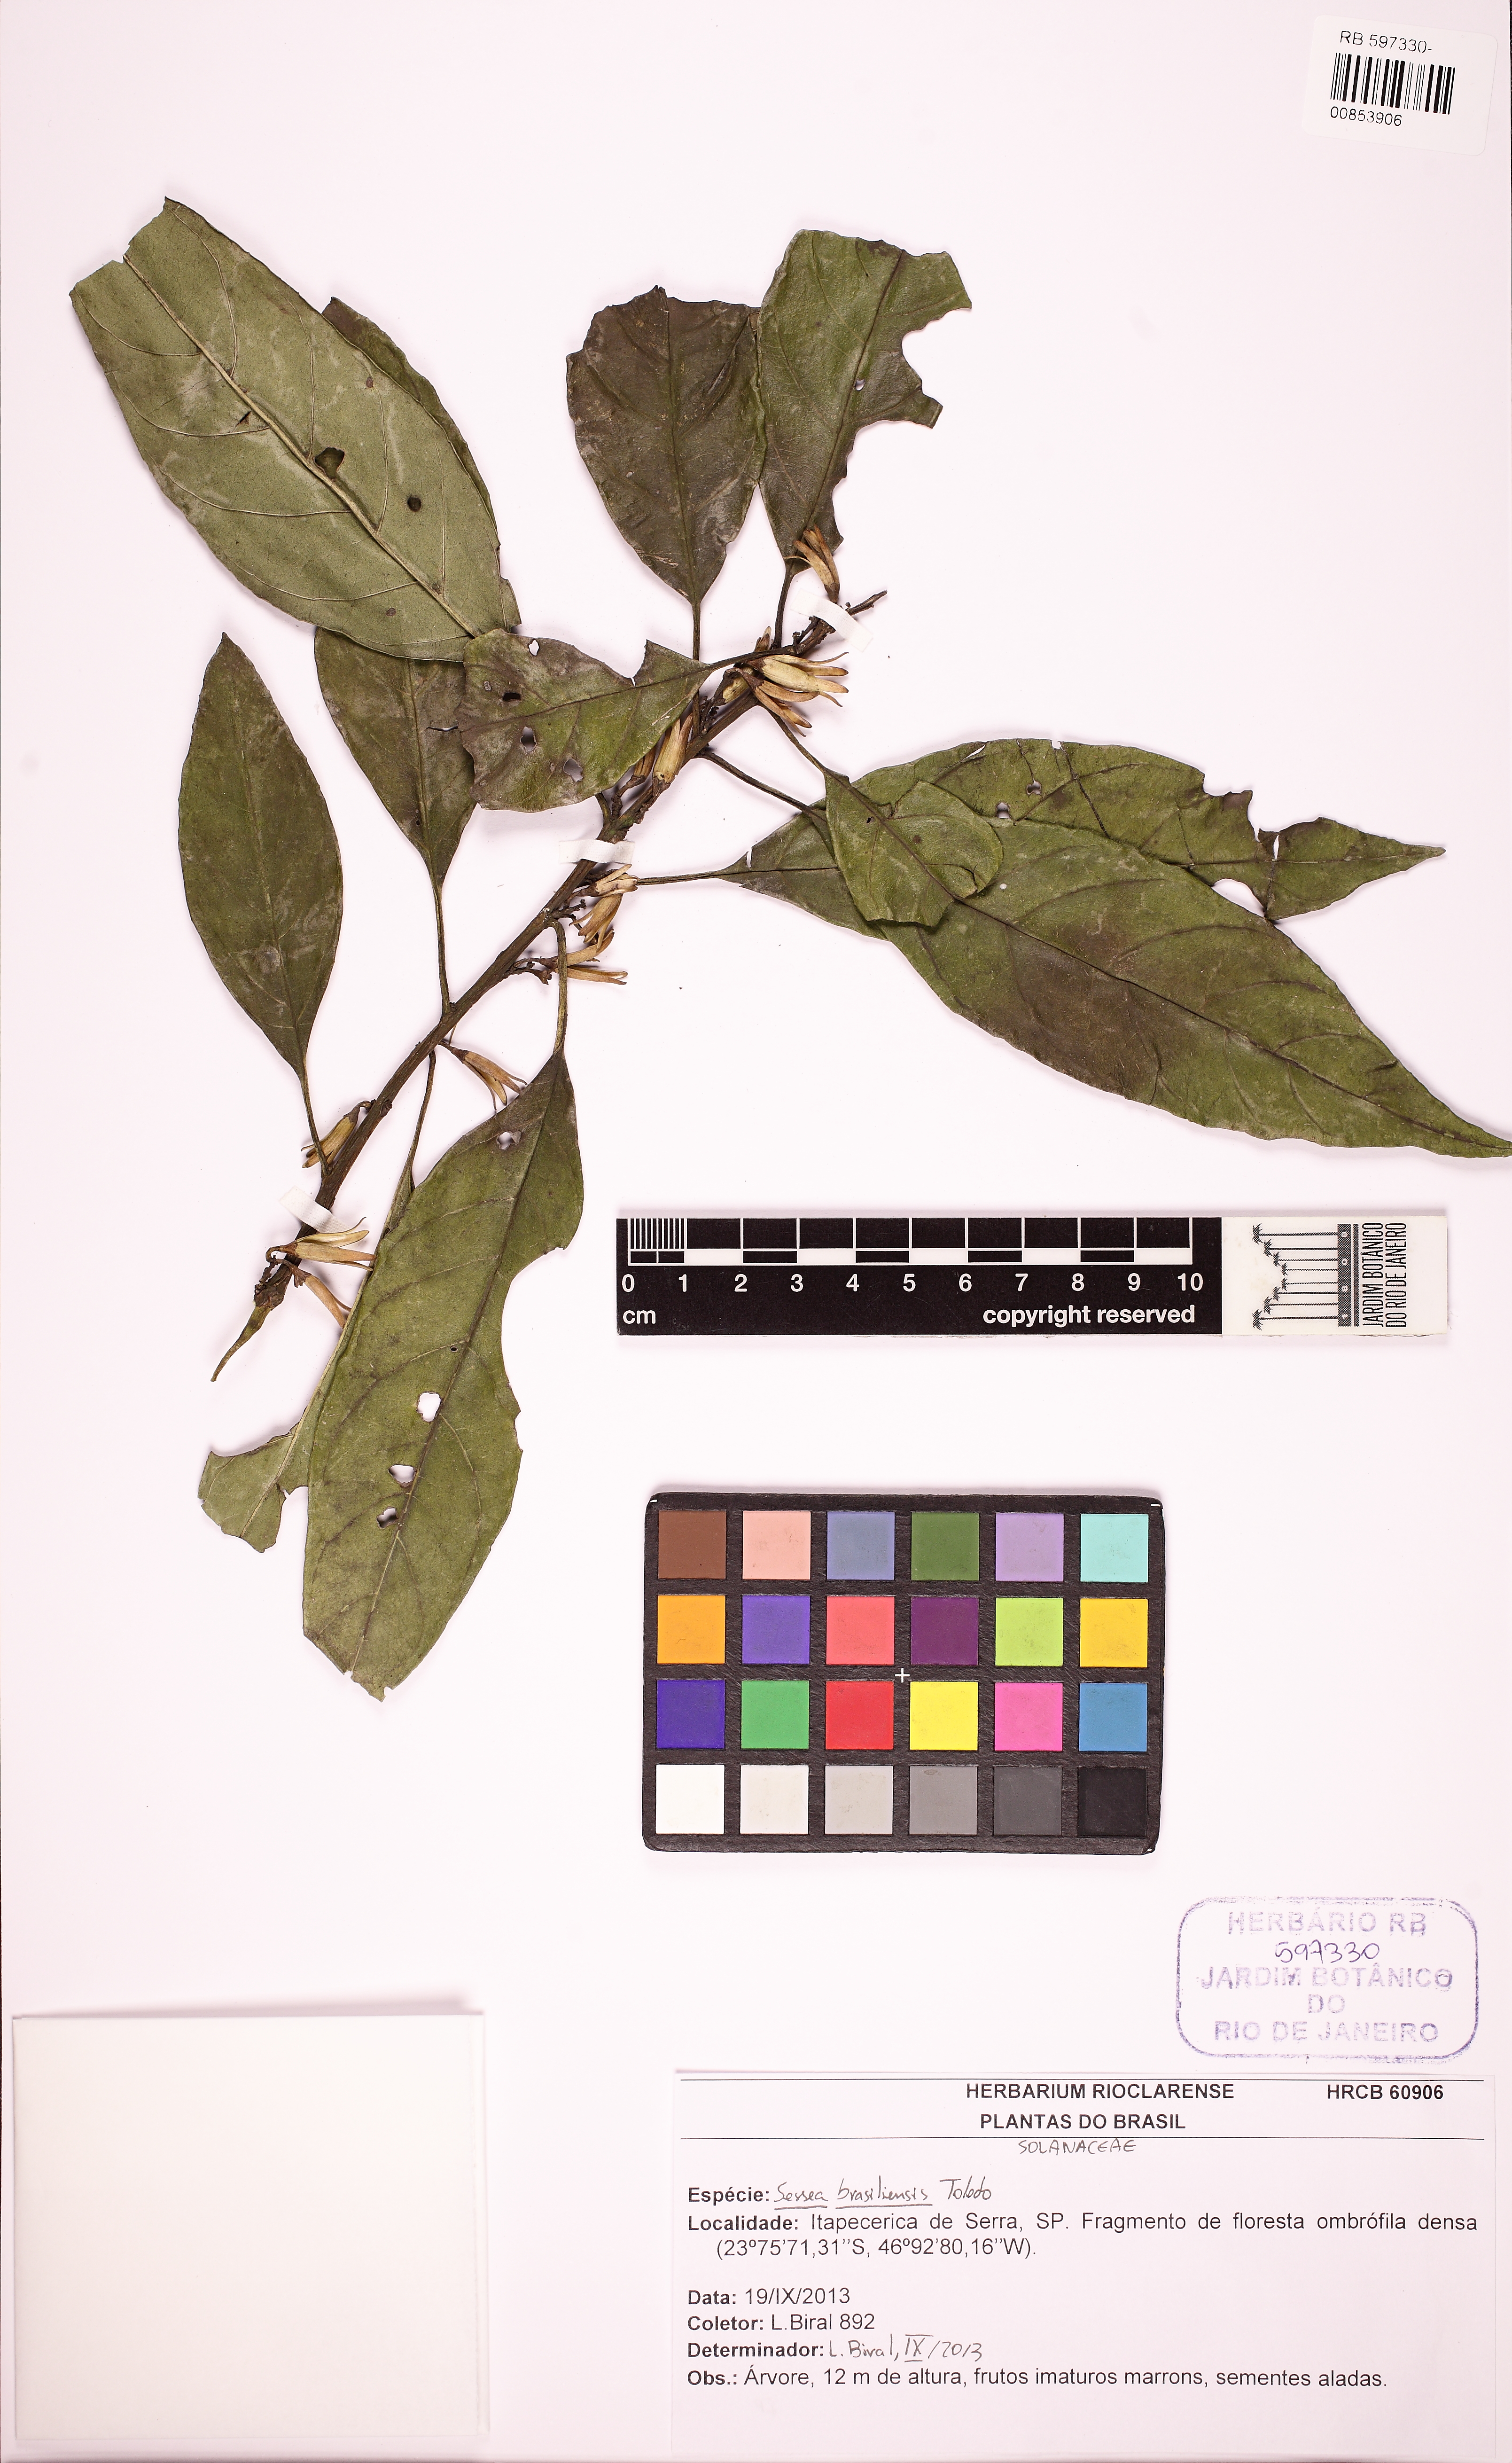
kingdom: Plantae
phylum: Tracheophyta
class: Magnoliopsida
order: Solanales
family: Solanaceae
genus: Cestrum
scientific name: Cestrum toledii
